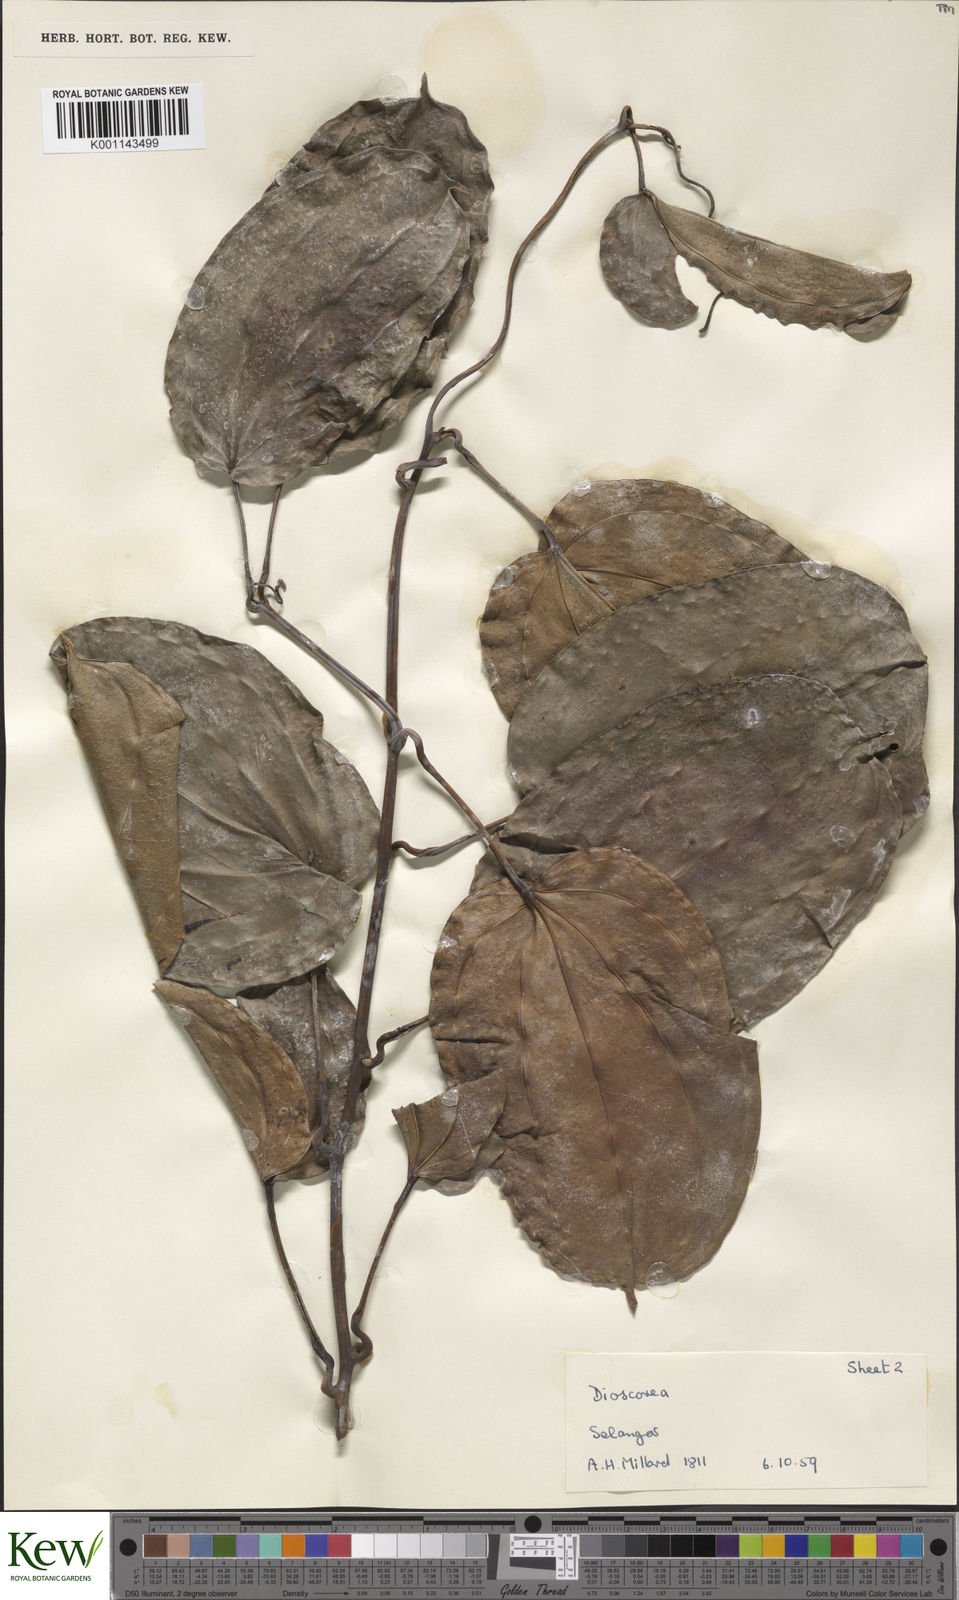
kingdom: Plantae
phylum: Tracheophyta
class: Liliopsida
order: Dioscoreales
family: Dioscoreaceae
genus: Dioscorea
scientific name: Dioscorea
